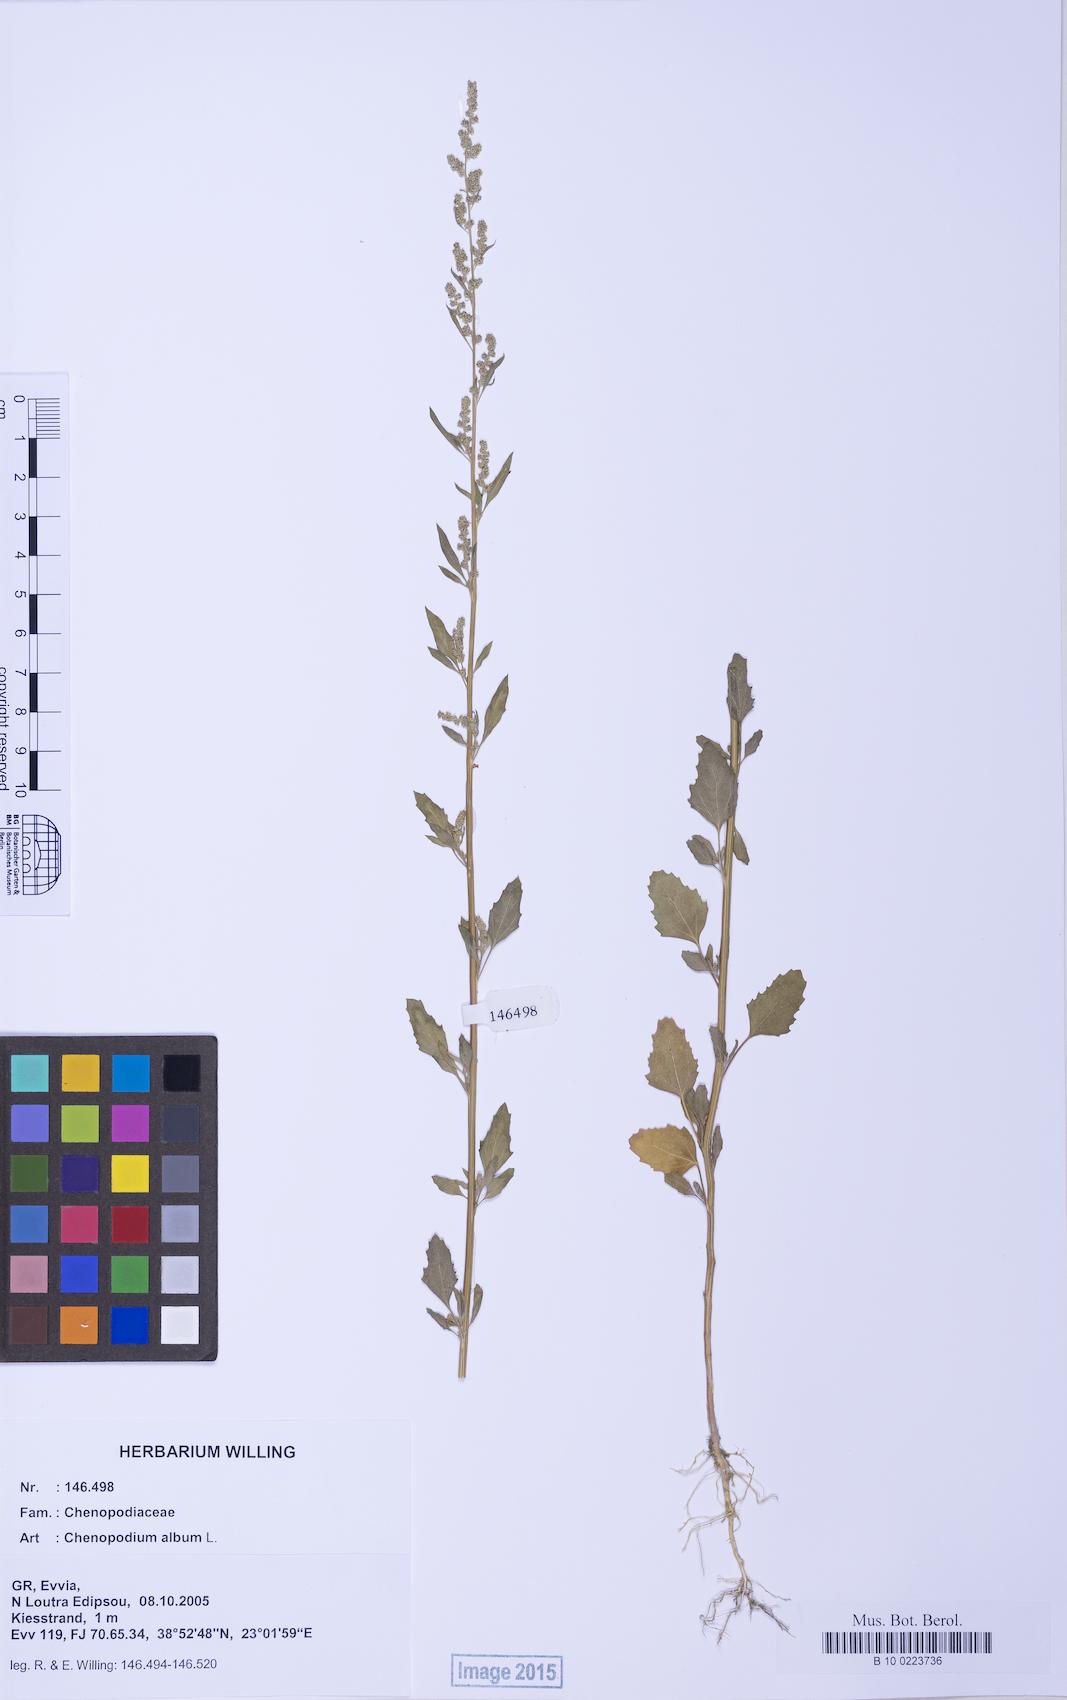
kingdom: Plantae
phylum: Tracheophyta
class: Magnoliopsida
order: Caryophyllales
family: Amaranthaceae
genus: Chenopodium
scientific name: Chenopodium betaceum
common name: Striped goosefoot
